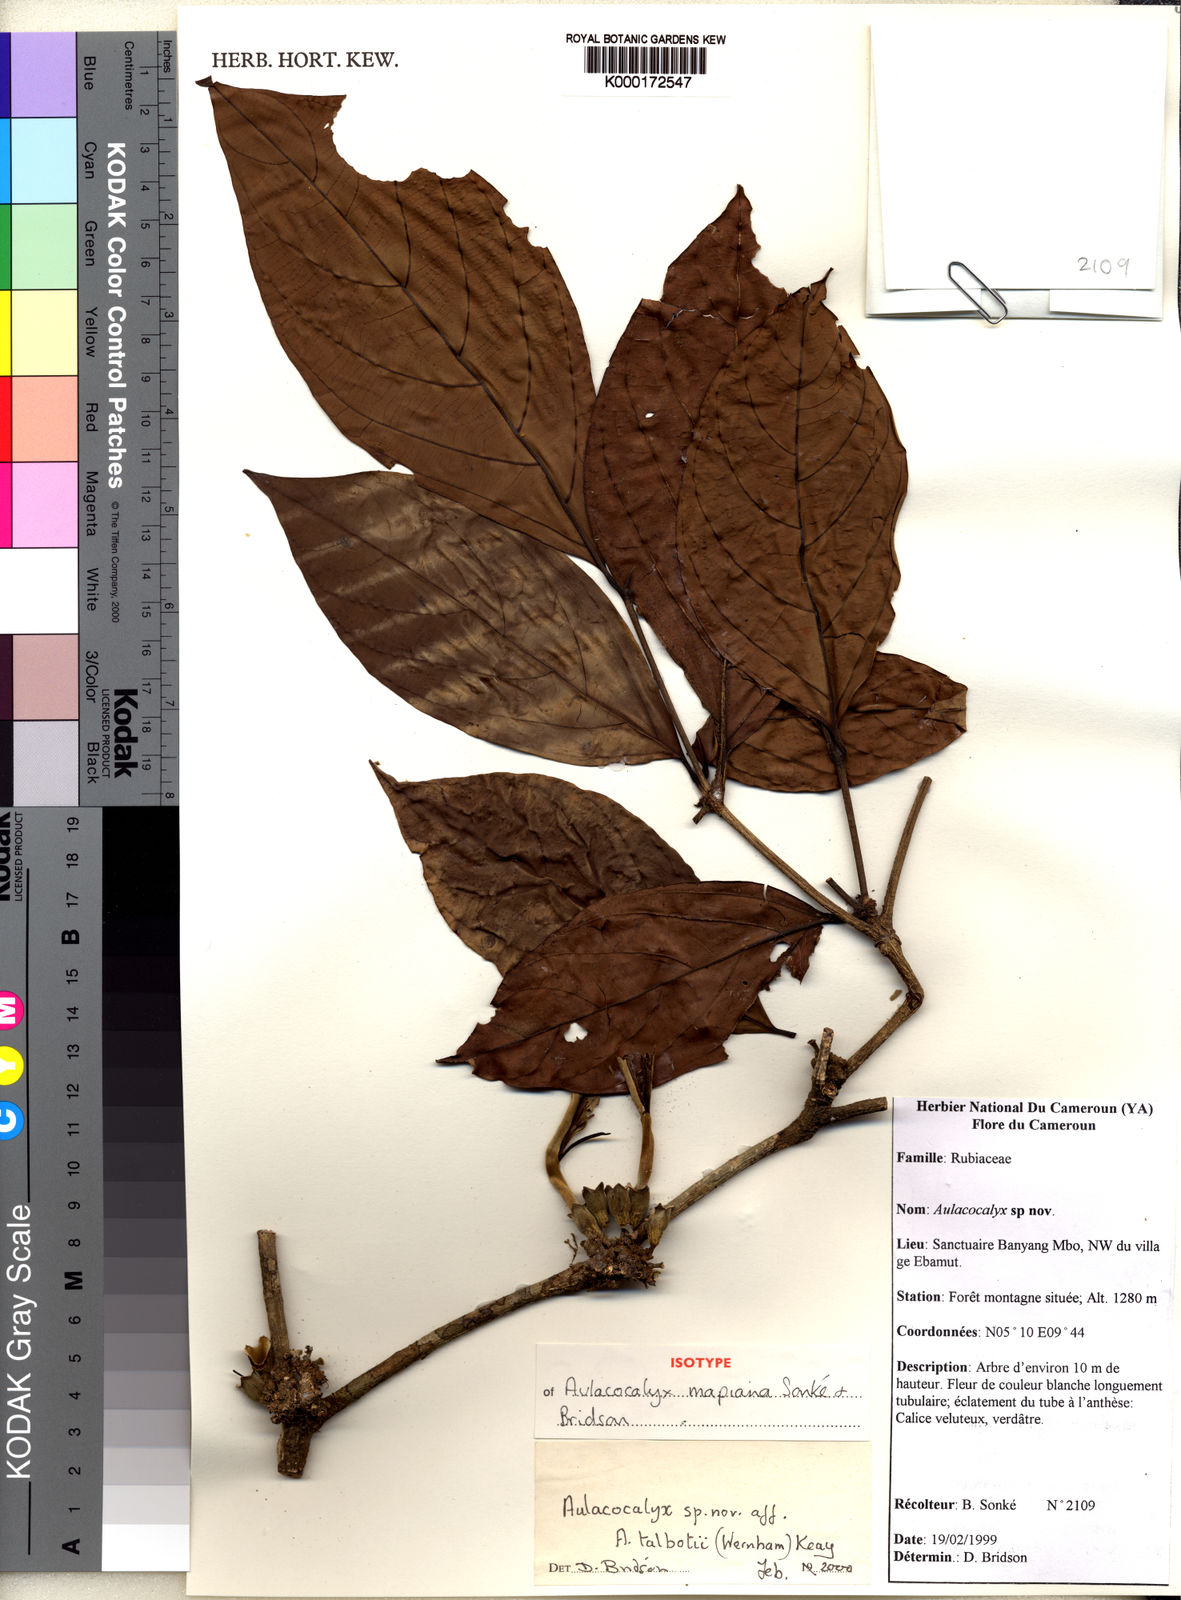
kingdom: Plantae
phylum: Tracheophyta
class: Magnoliopsida
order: Gentianales
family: Rubiaceae
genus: Aulacocalyx
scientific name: Aulacocalyx
